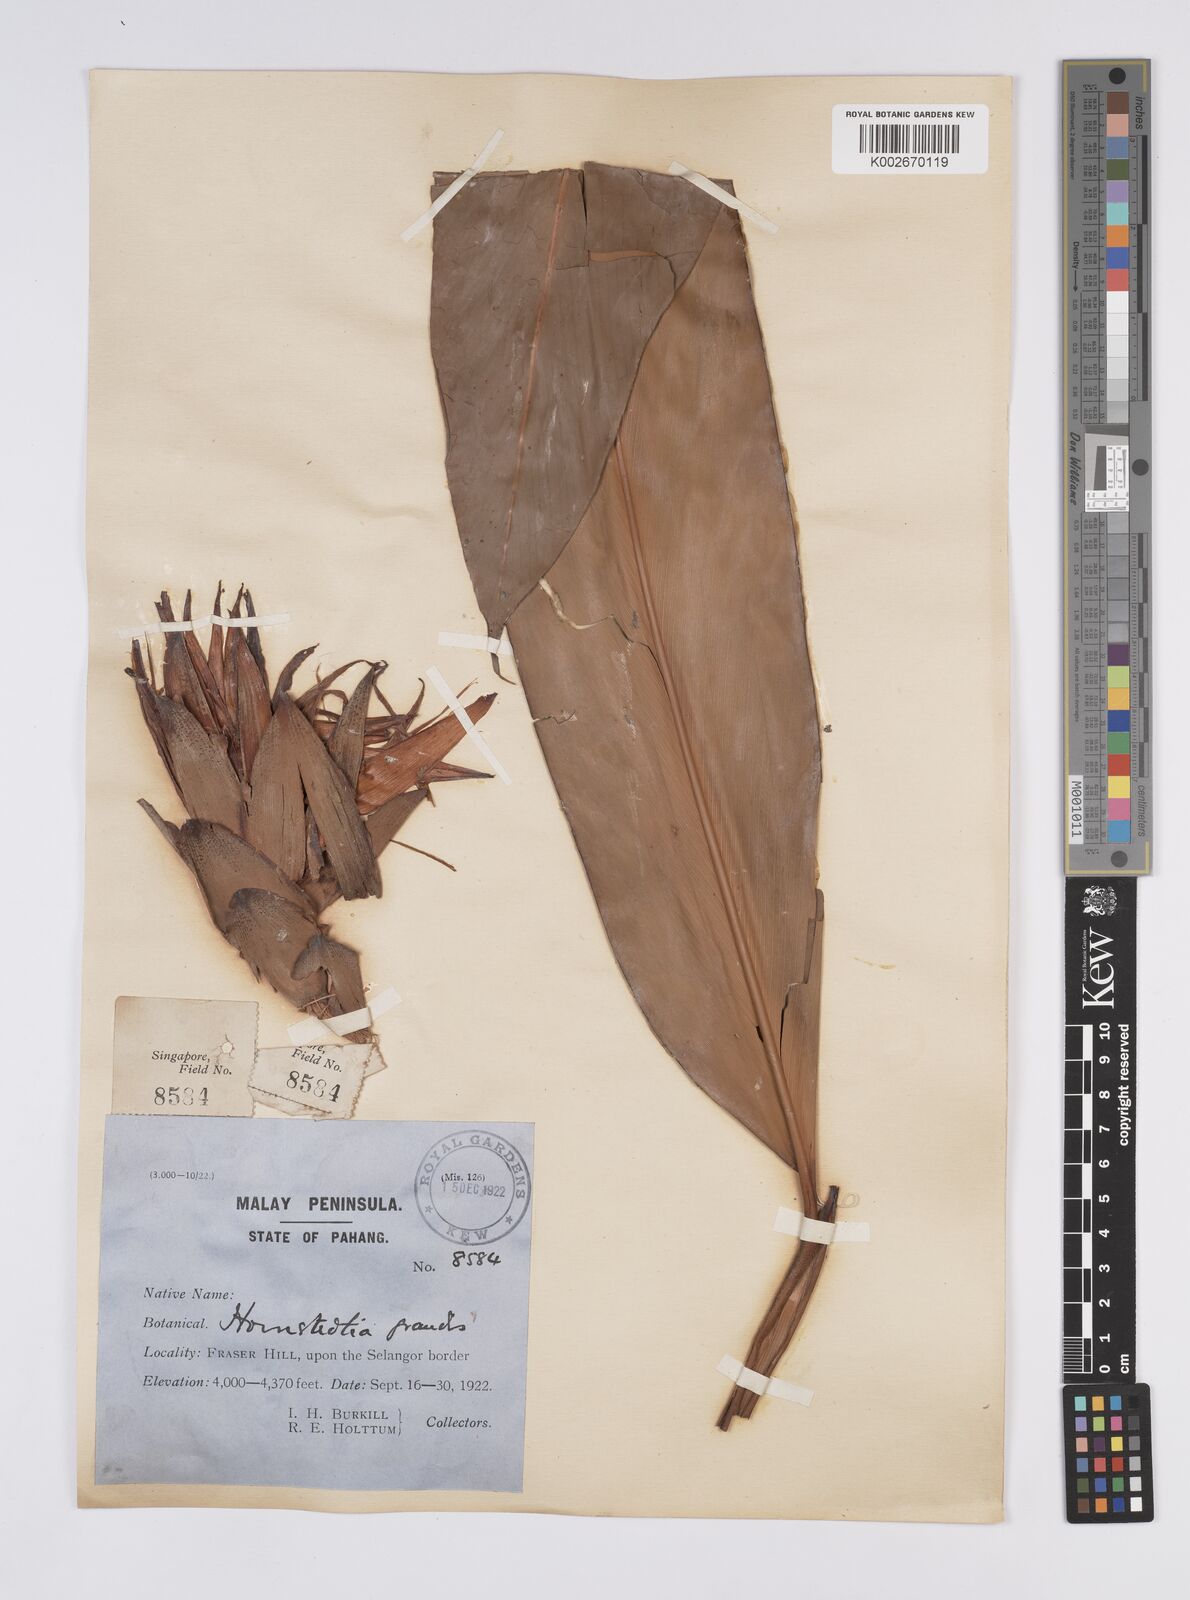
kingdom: Plantae
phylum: Tracheophyta
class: Liliopsida
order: Zingiberales
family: Zingiberaceae
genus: Hornstedtia
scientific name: Hornstedtia scyphifera
